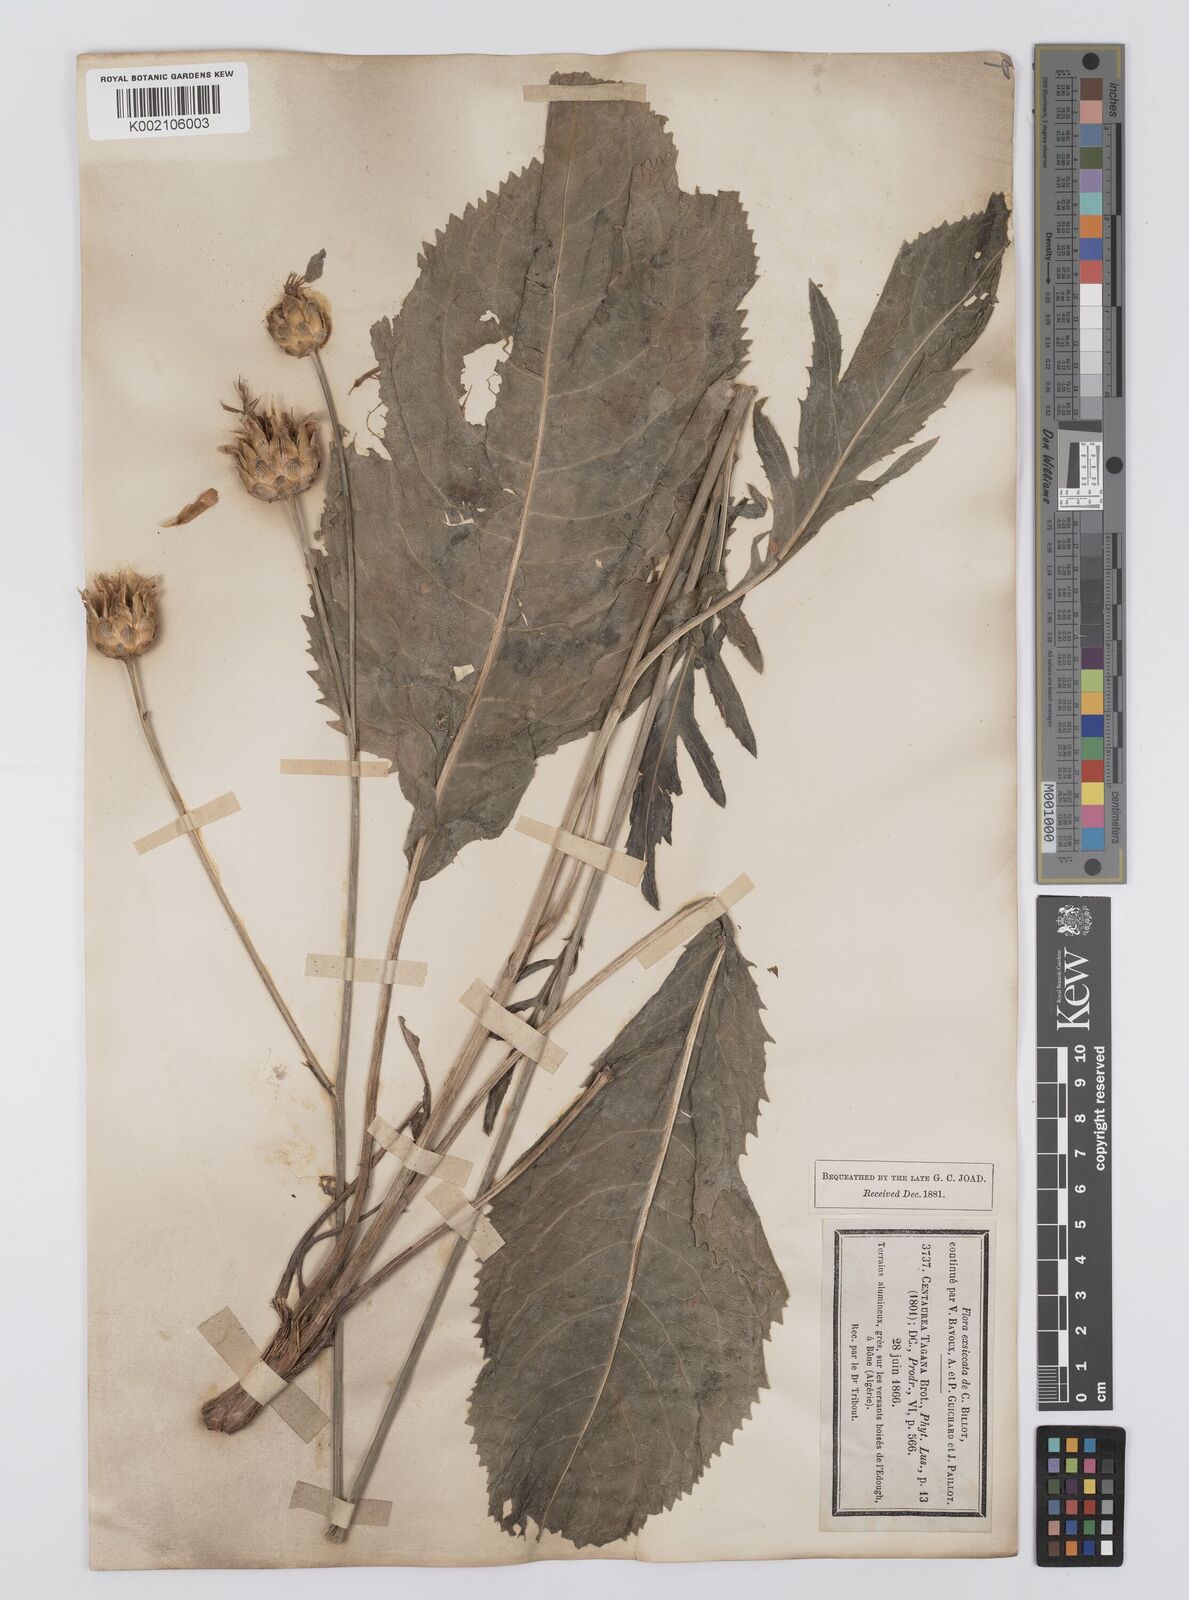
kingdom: Plantae
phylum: Tracheophyta
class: Magnoliopsida
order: Asterales
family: Asteraceae
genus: Rhaponticoides
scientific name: Rhaponticoides africana
